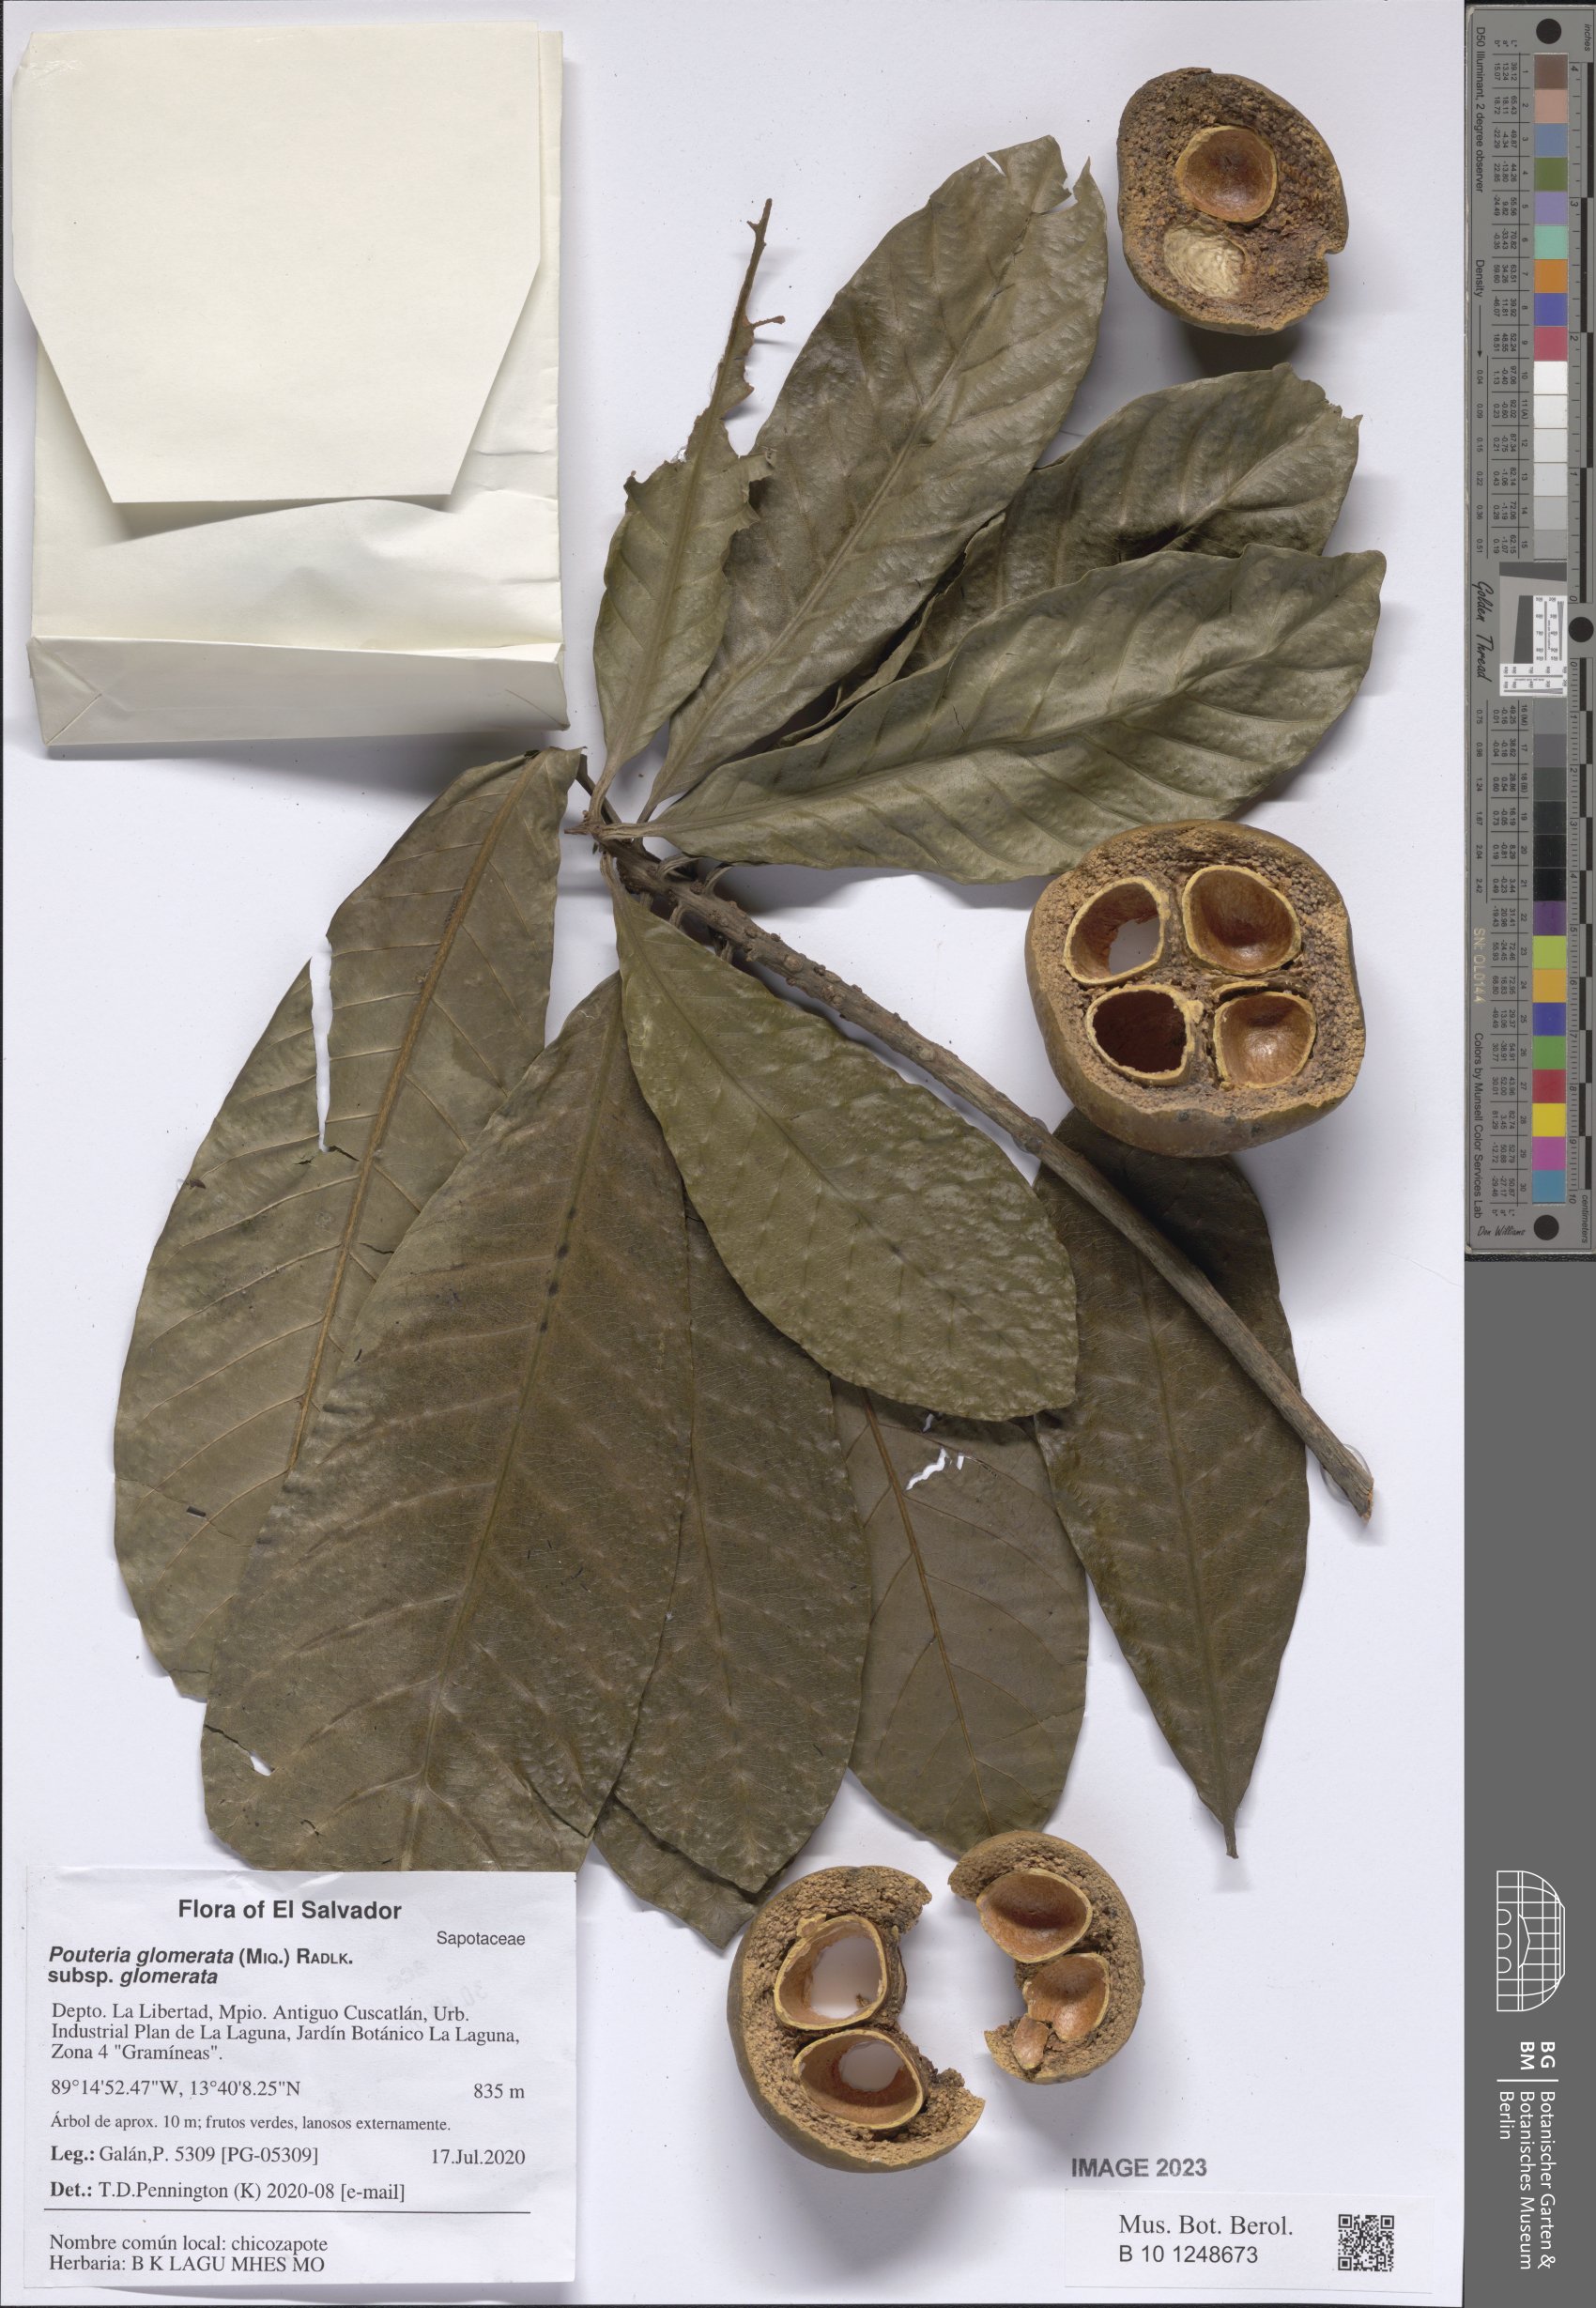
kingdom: Plantae
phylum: Tracheophyta
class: Magnoliopsida
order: Ericales
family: Sapotaceae
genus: Pouteria
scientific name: Pouteria glomerata
